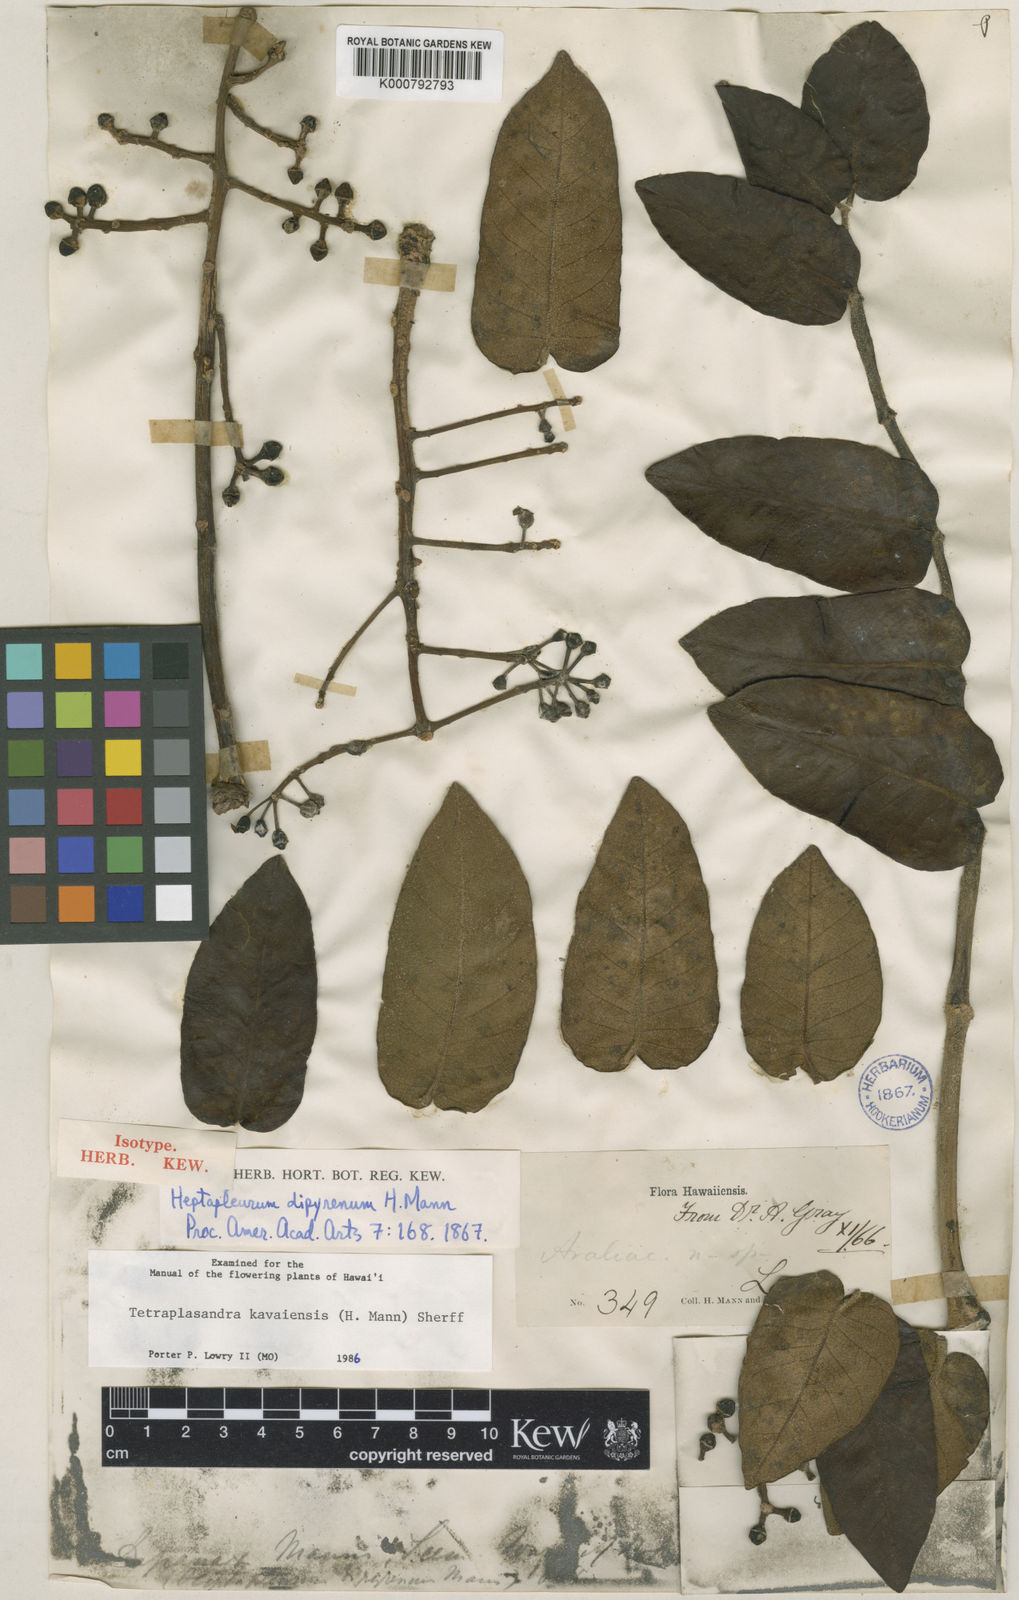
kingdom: Plantae
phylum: Tracheophyta
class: Magnoliopsida
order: Apiales
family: Araliaceae
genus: Polyscias
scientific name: Polyscias kavaiensis
